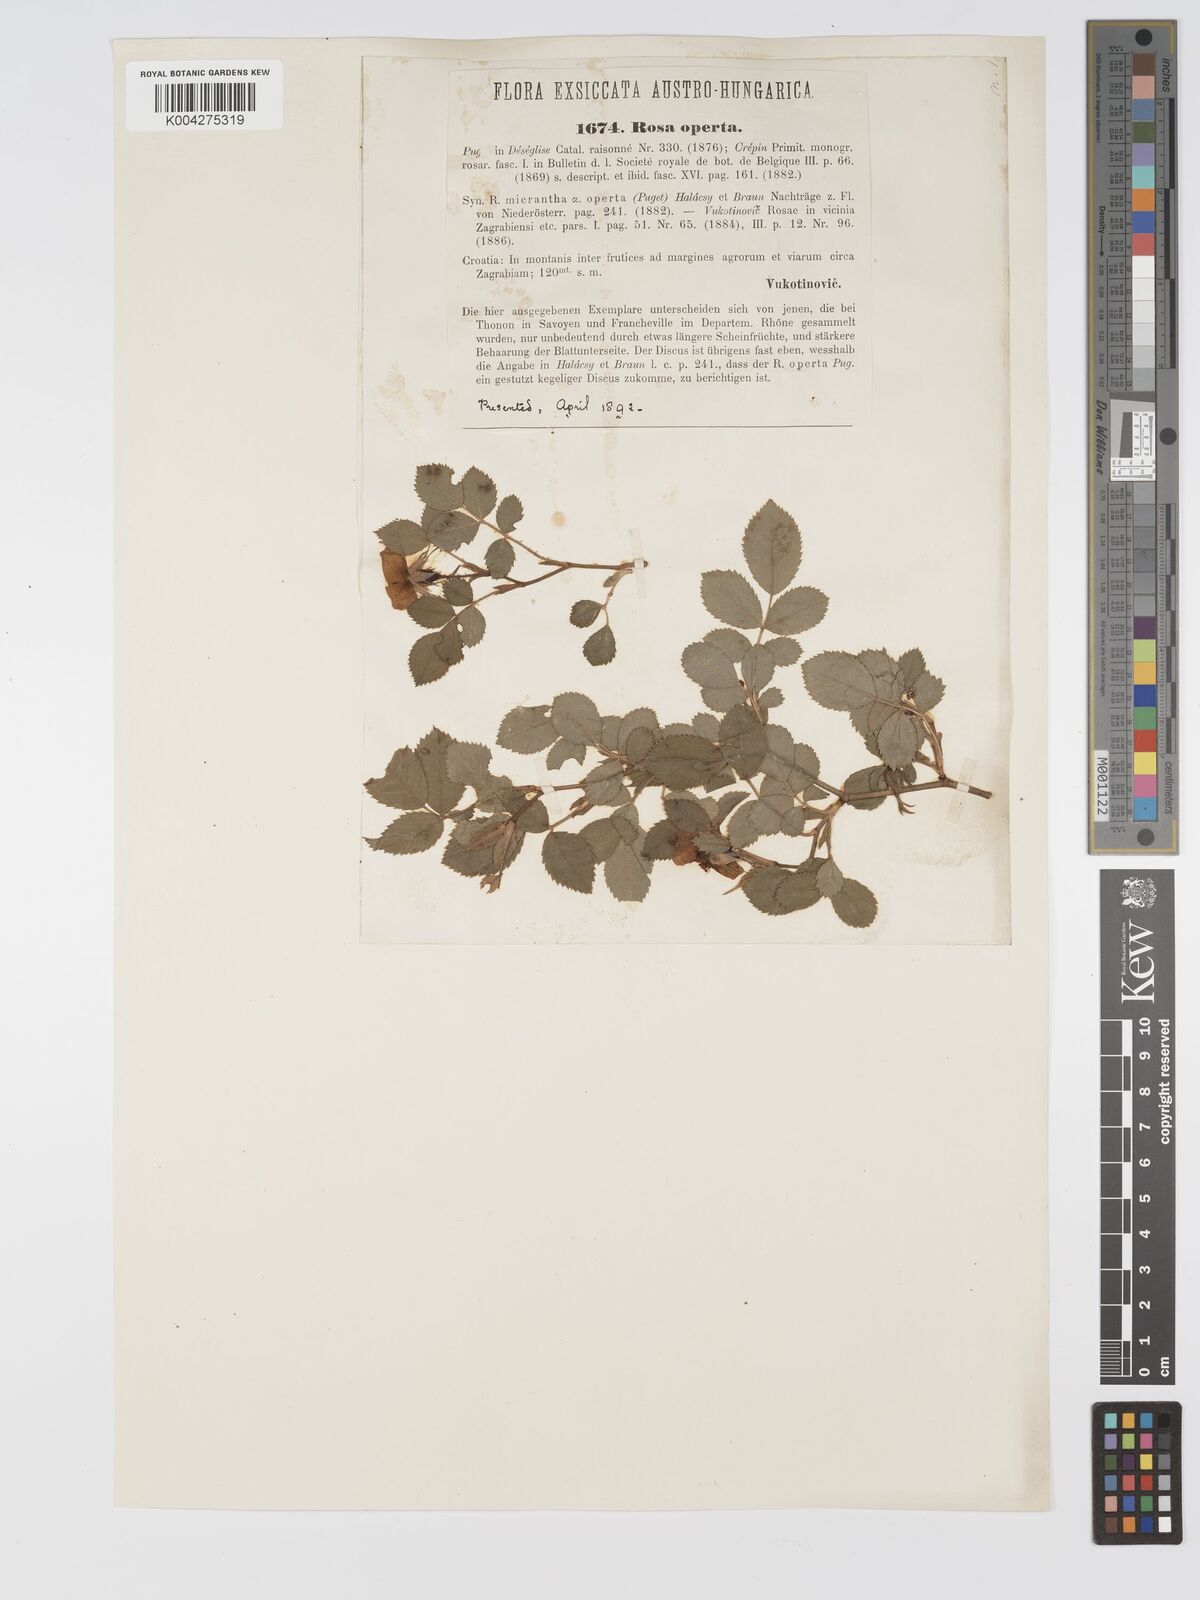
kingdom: Plantae
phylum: Tracheophyta
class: Magnoliopsida
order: Rosales
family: Rosaceae
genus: Rosa
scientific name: Rosa
